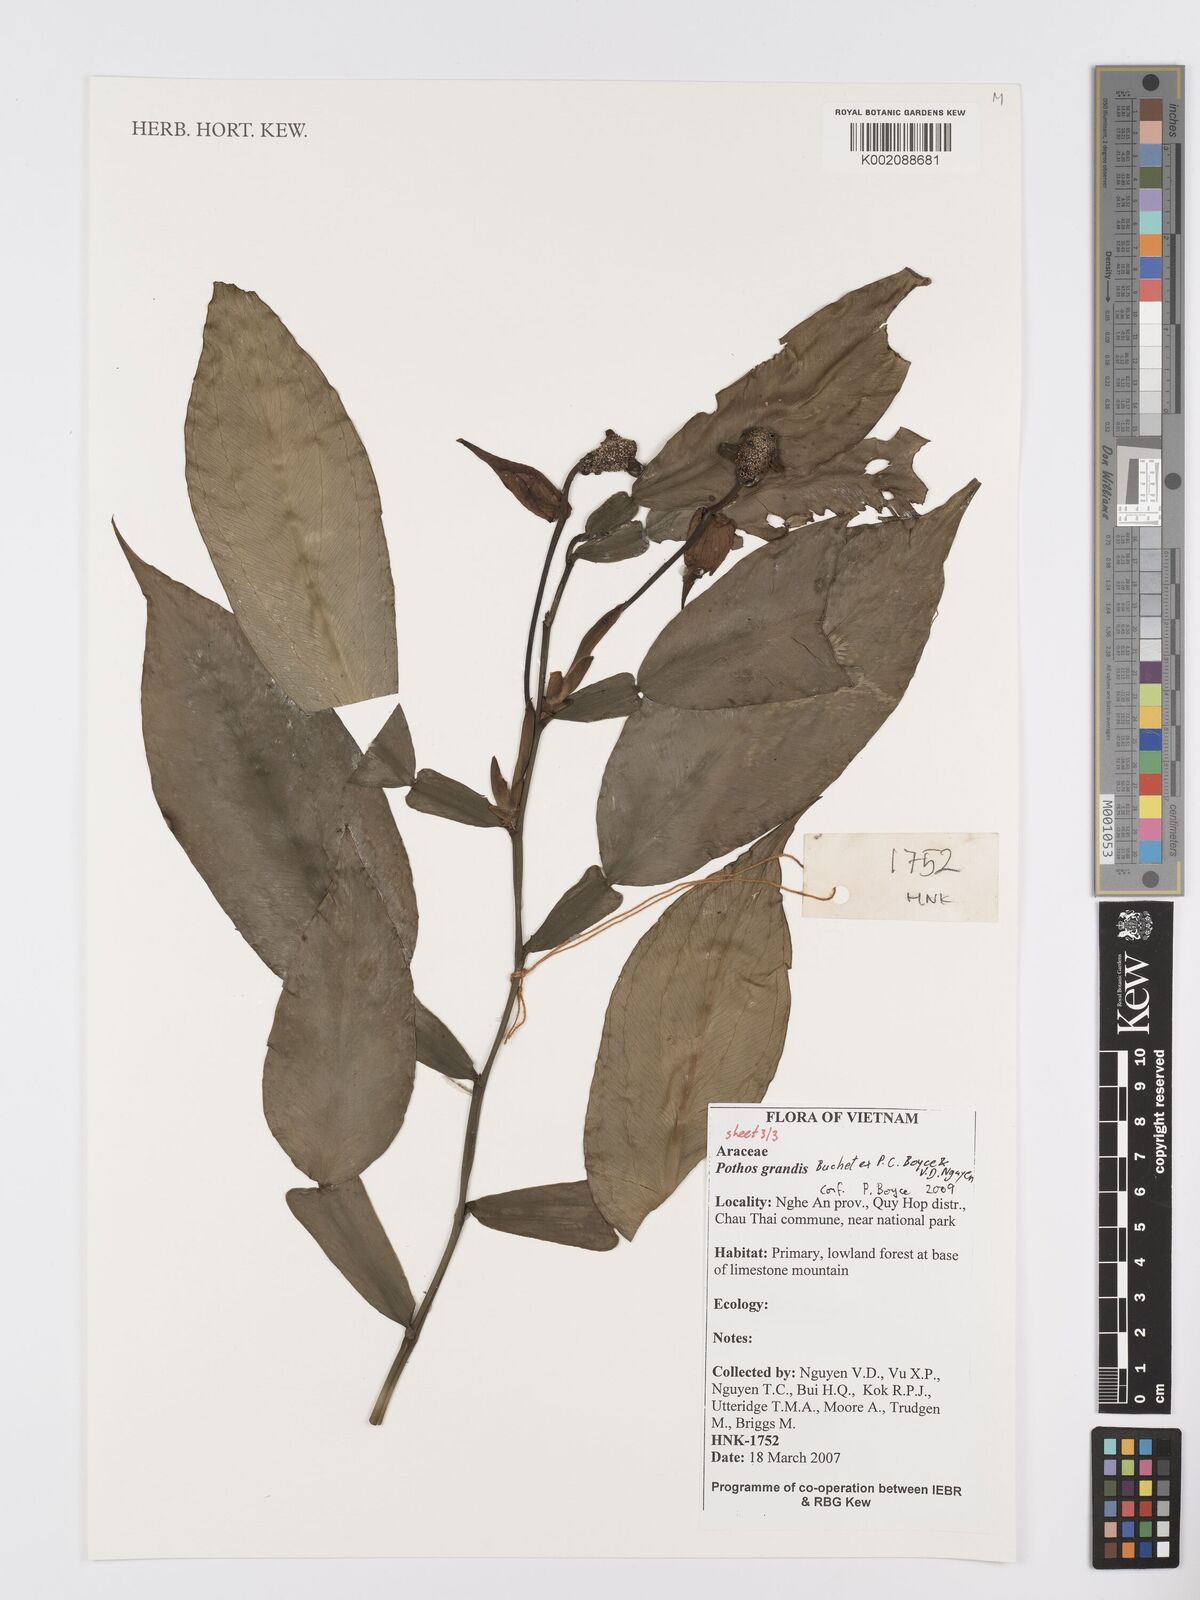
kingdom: Plantae
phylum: Tracheophyta
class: Liliopsida
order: Alismatales
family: Araceae
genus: Pothos
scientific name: Pothos grandis
